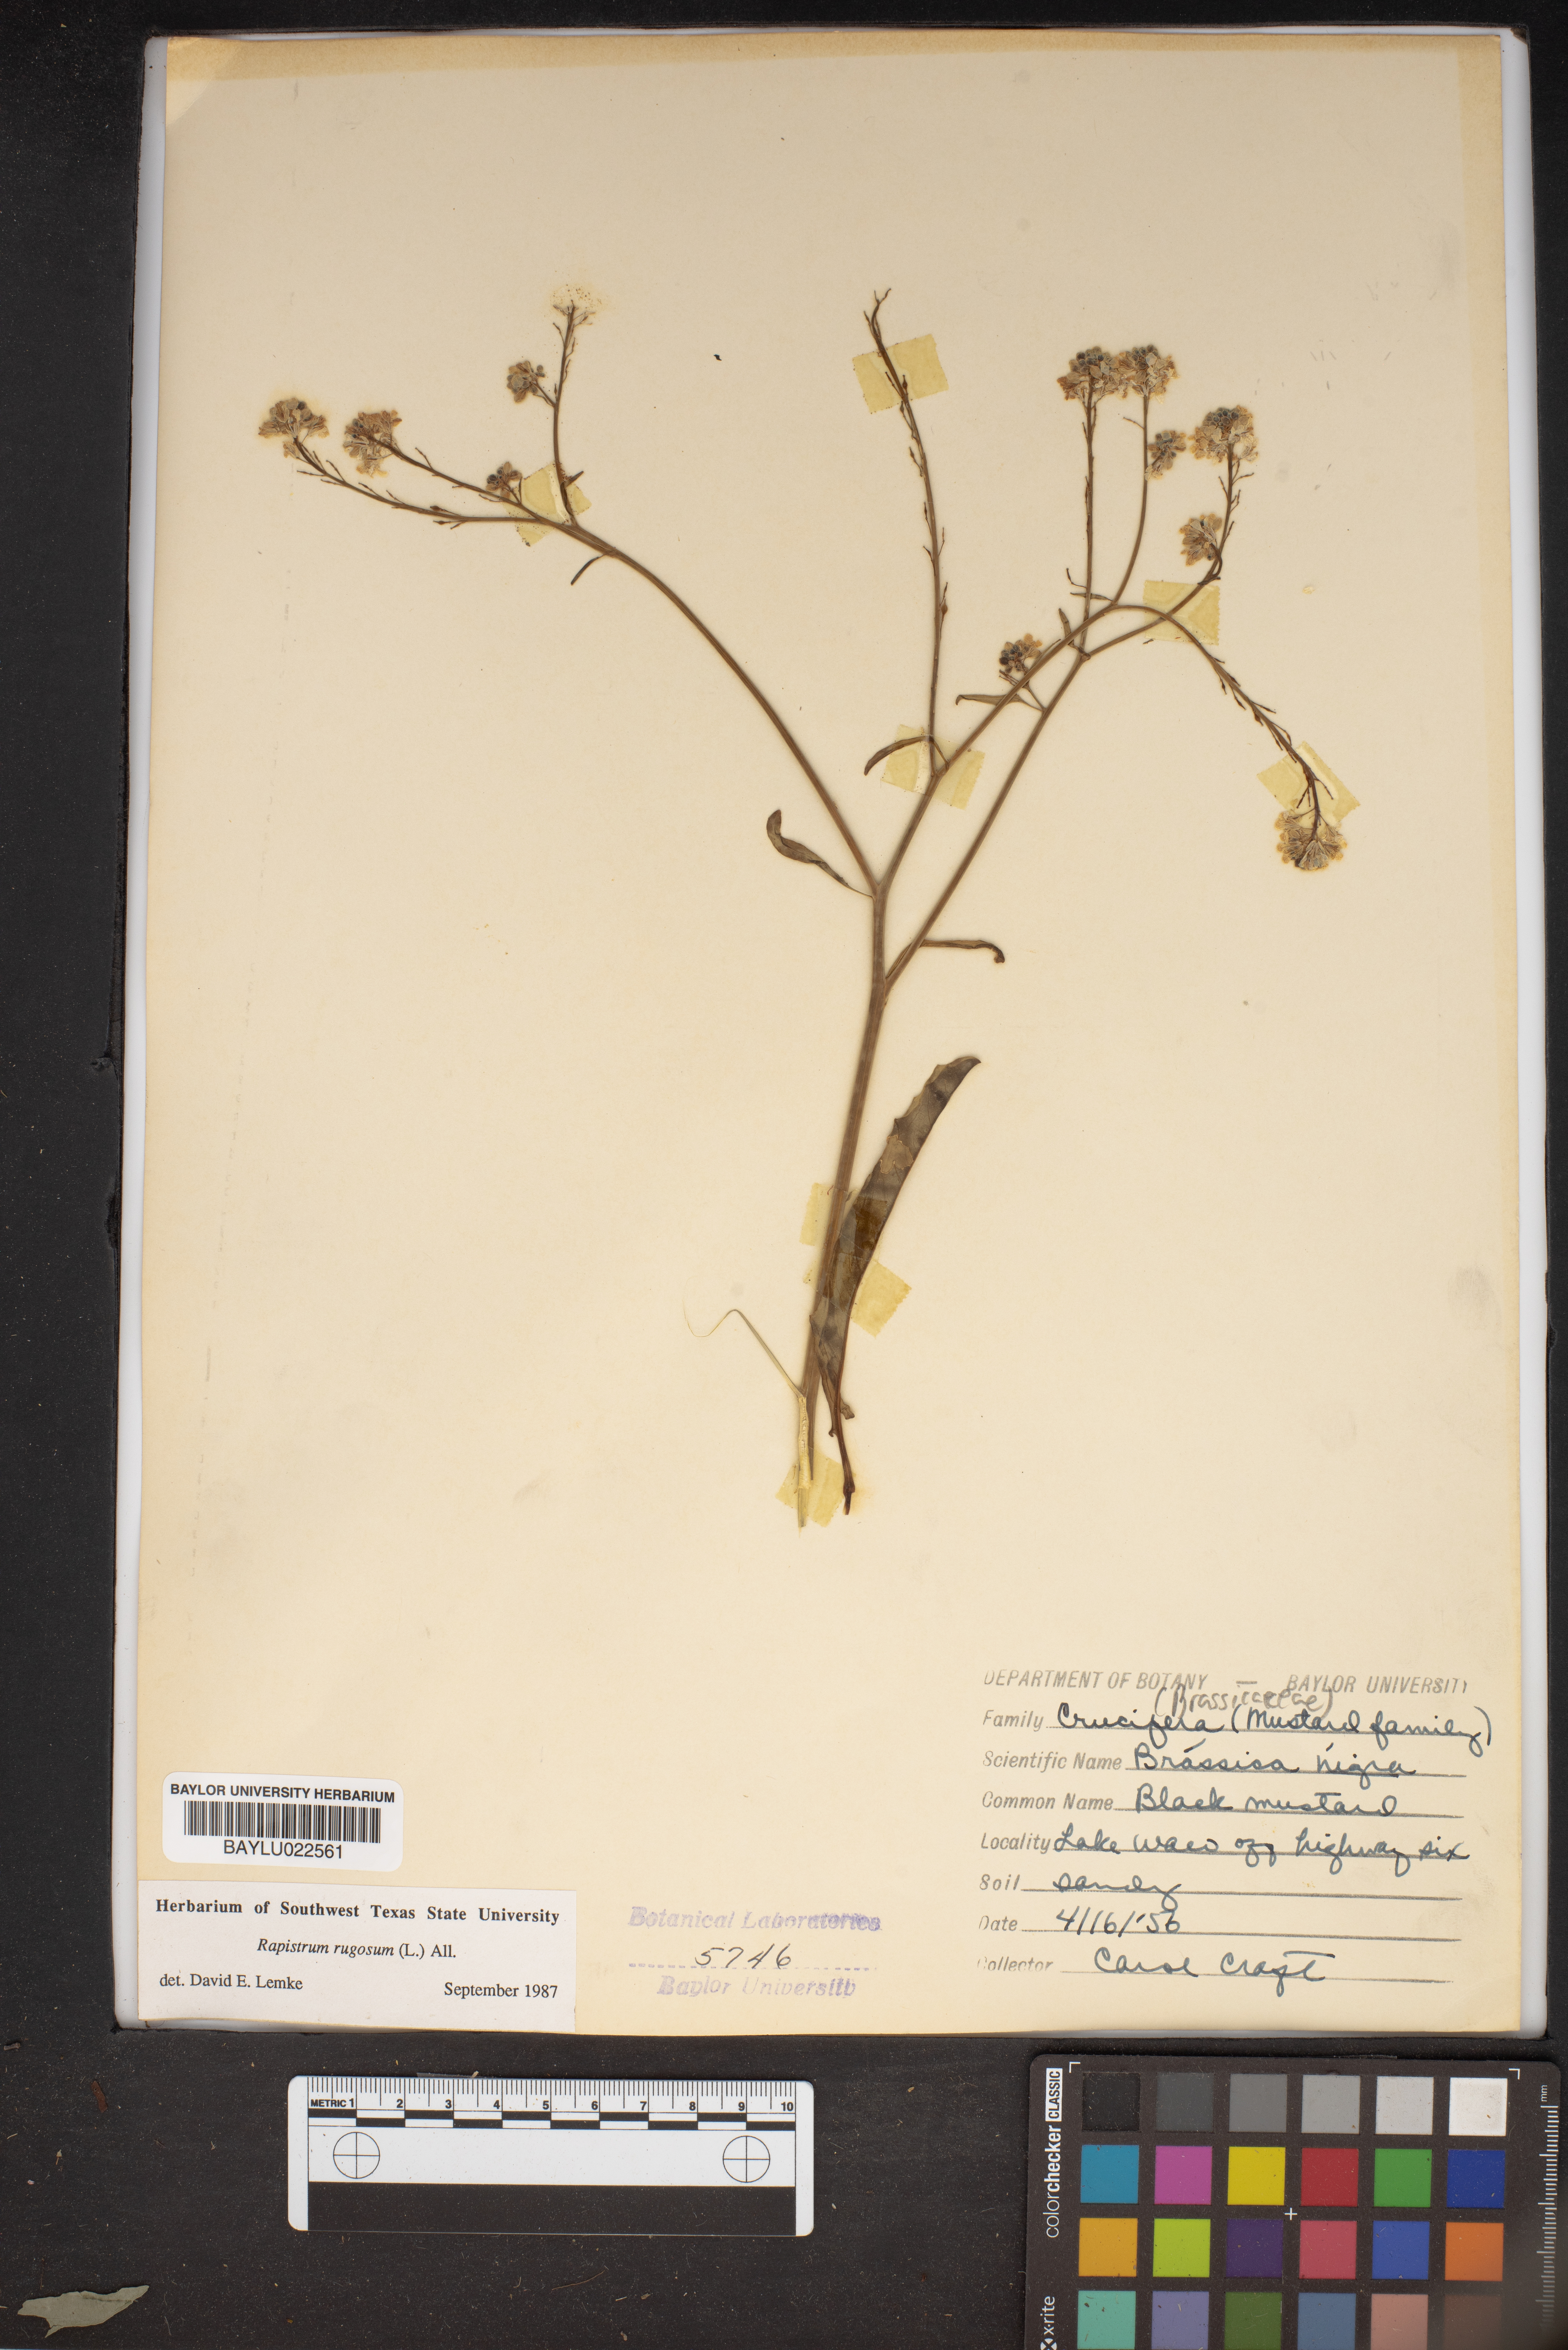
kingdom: Plantae
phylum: Tracheophyta
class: Magnoliopsida
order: Brassicales
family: Brassicaceae
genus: Rapistrum
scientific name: Rapistrum rugosum
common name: Annual bastardcabbage
